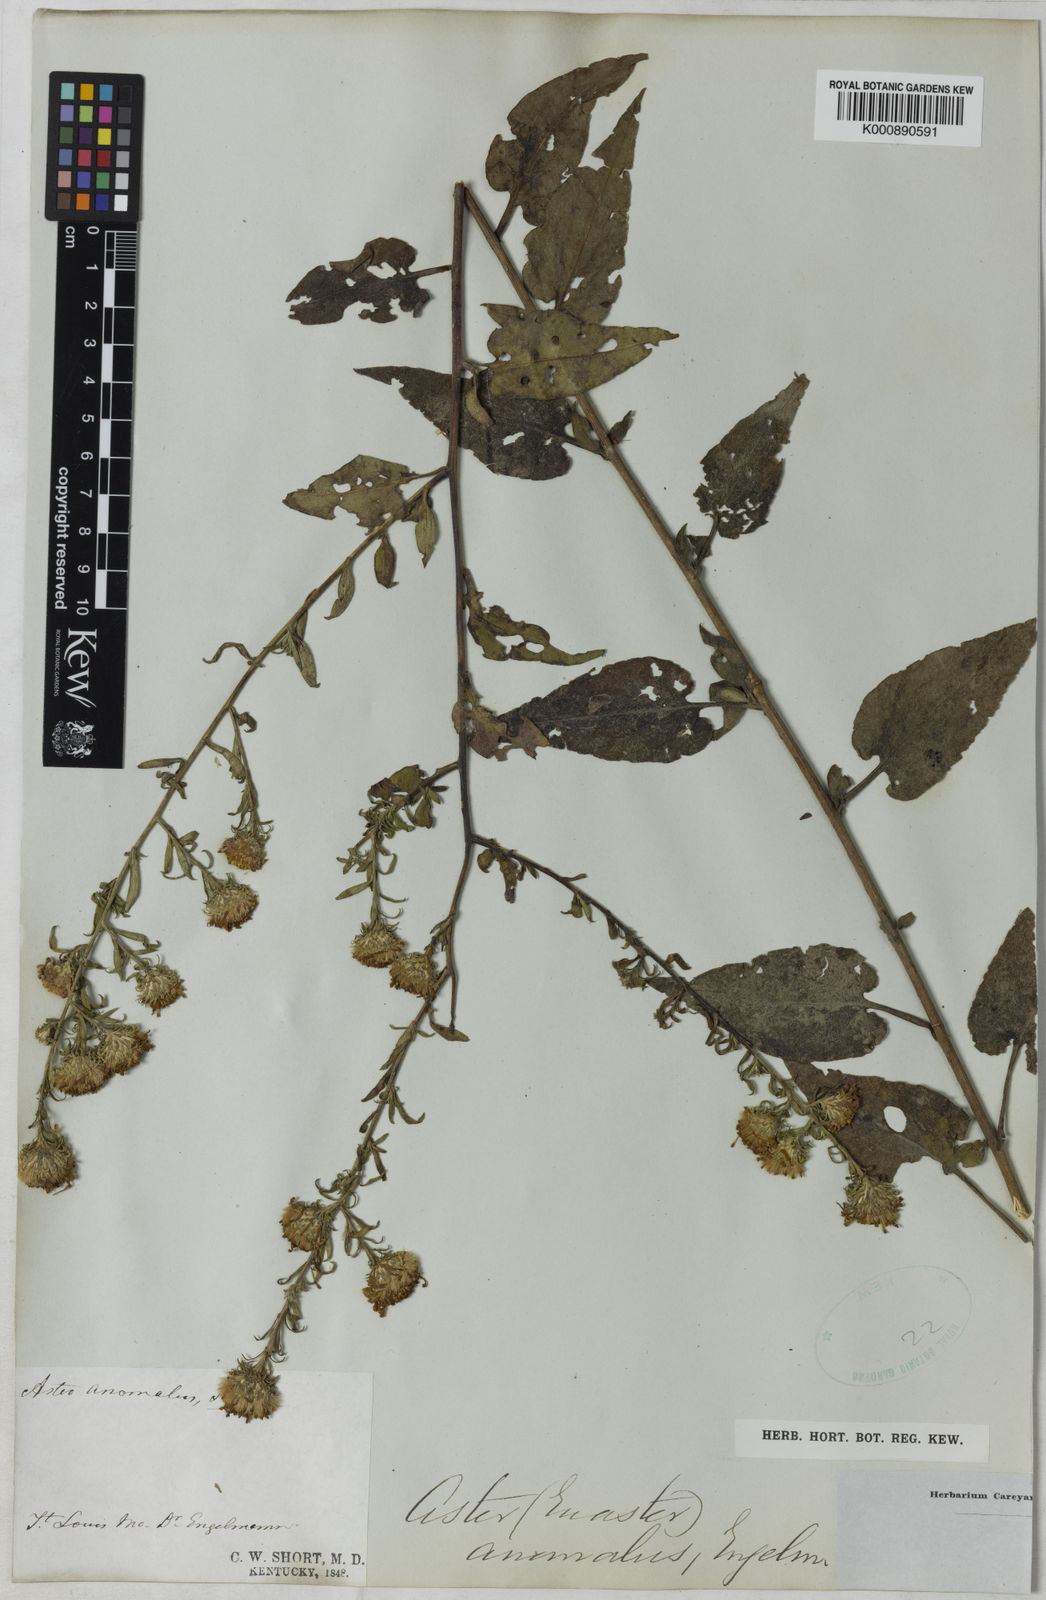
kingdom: Plantae
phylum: Tracheophyta
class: Magnoliopsida
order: Asterales
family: Asteraceae
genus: Aster
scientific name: Aster
